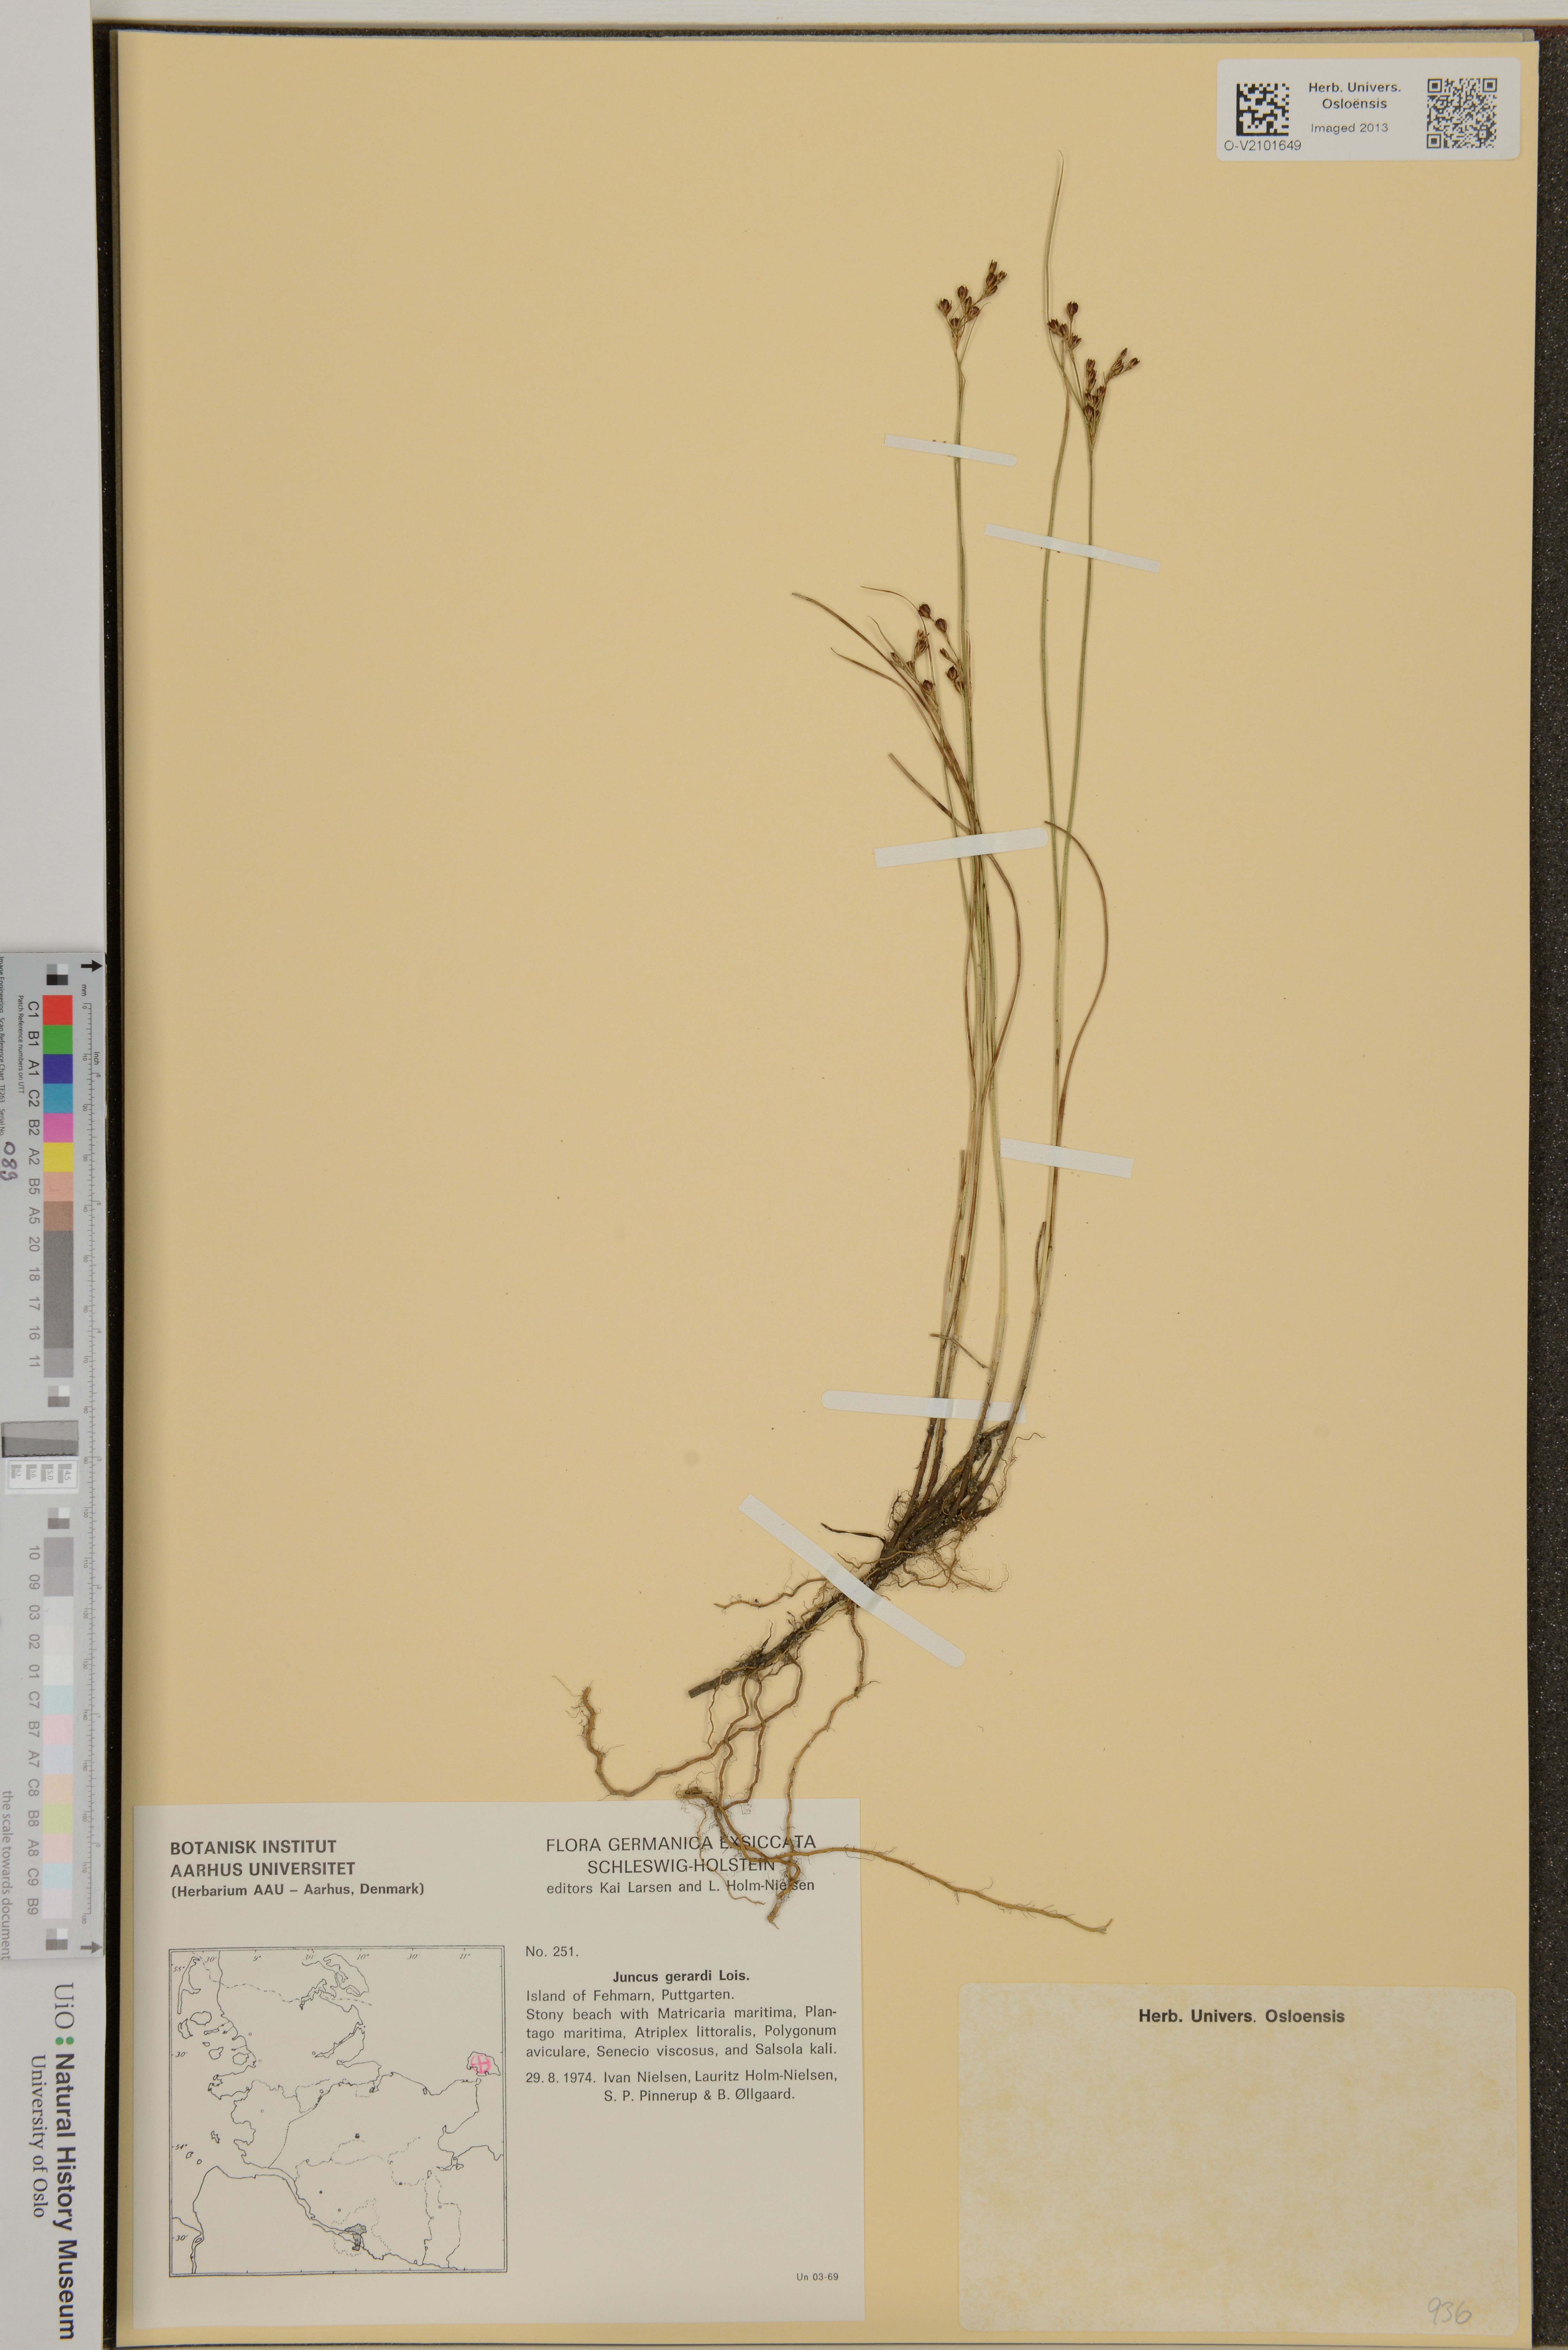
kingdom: Plantae
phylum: Tracheophyta
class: Liliopsida
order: Poales
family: Juncaceae
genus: Juncus
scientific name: Juncus gerardi
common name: Saltmarsh rush
